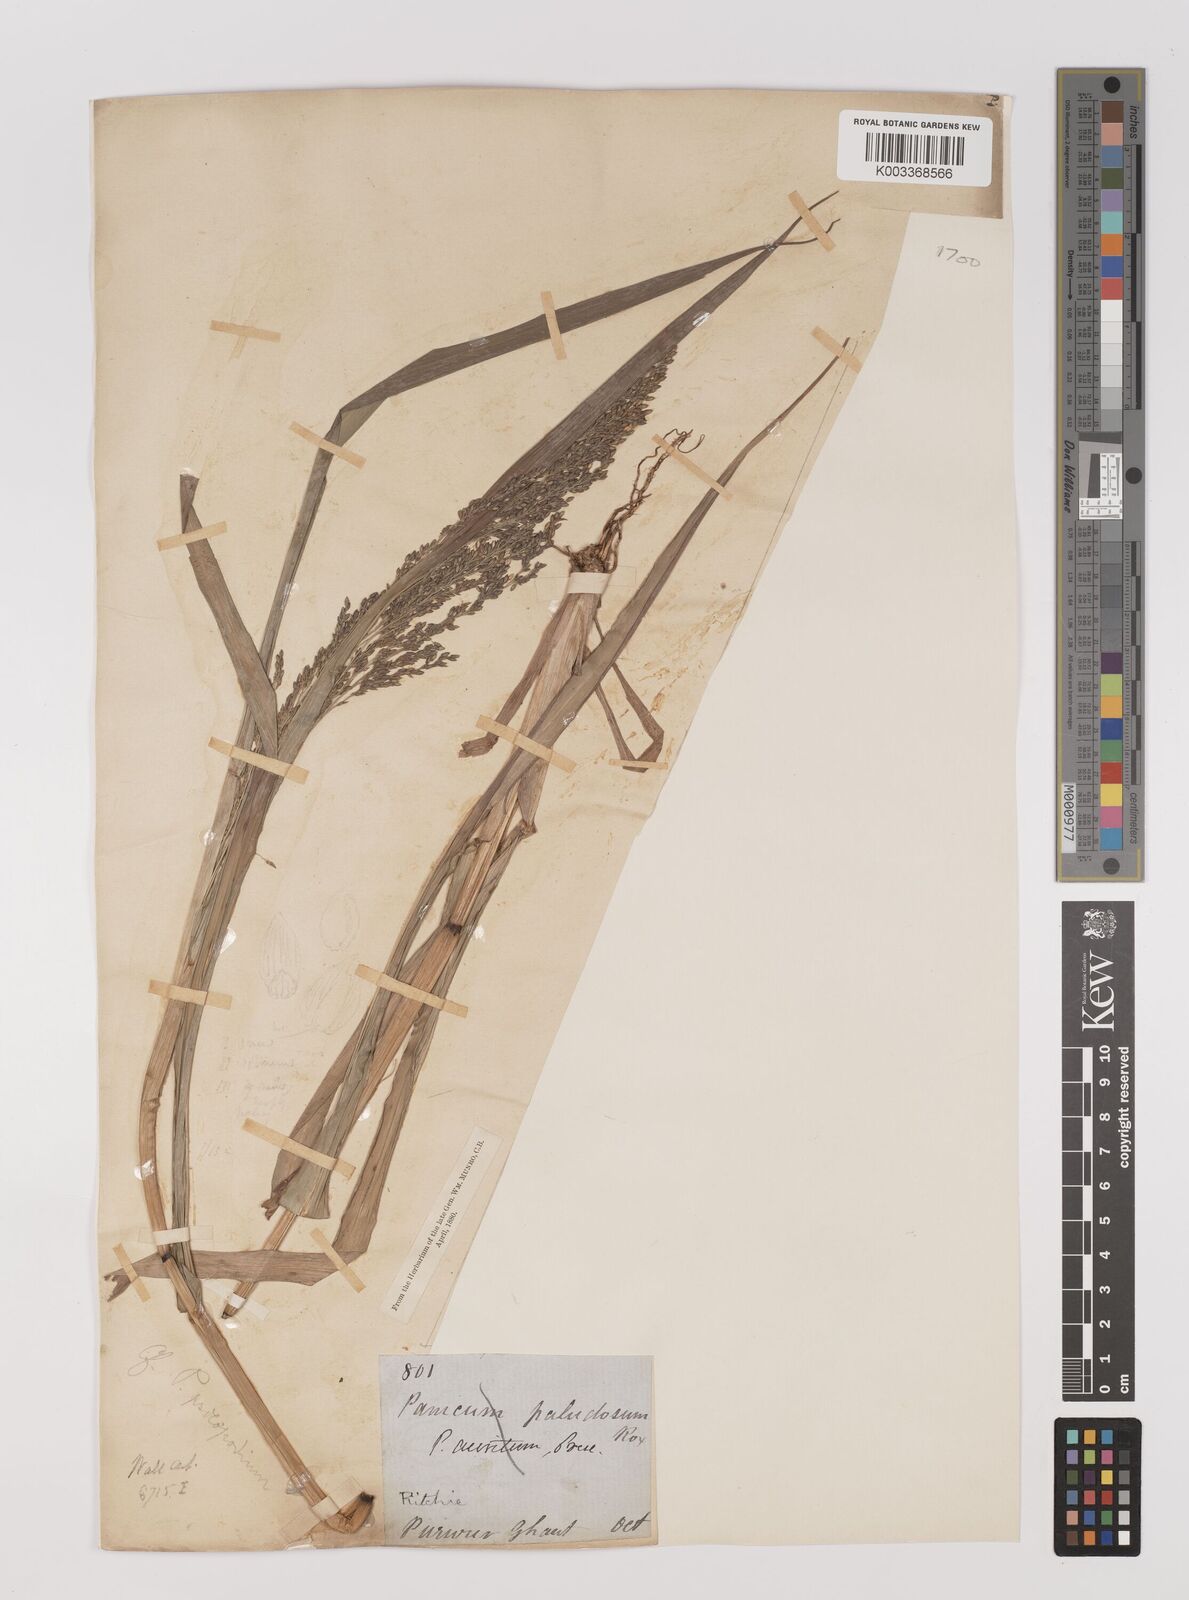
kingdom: Plantae
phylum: Tracheophyta
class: Liliopsida
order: Poales
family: Poaceae
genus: Panicum
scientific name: Panicum sumatrense
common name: Little millet
